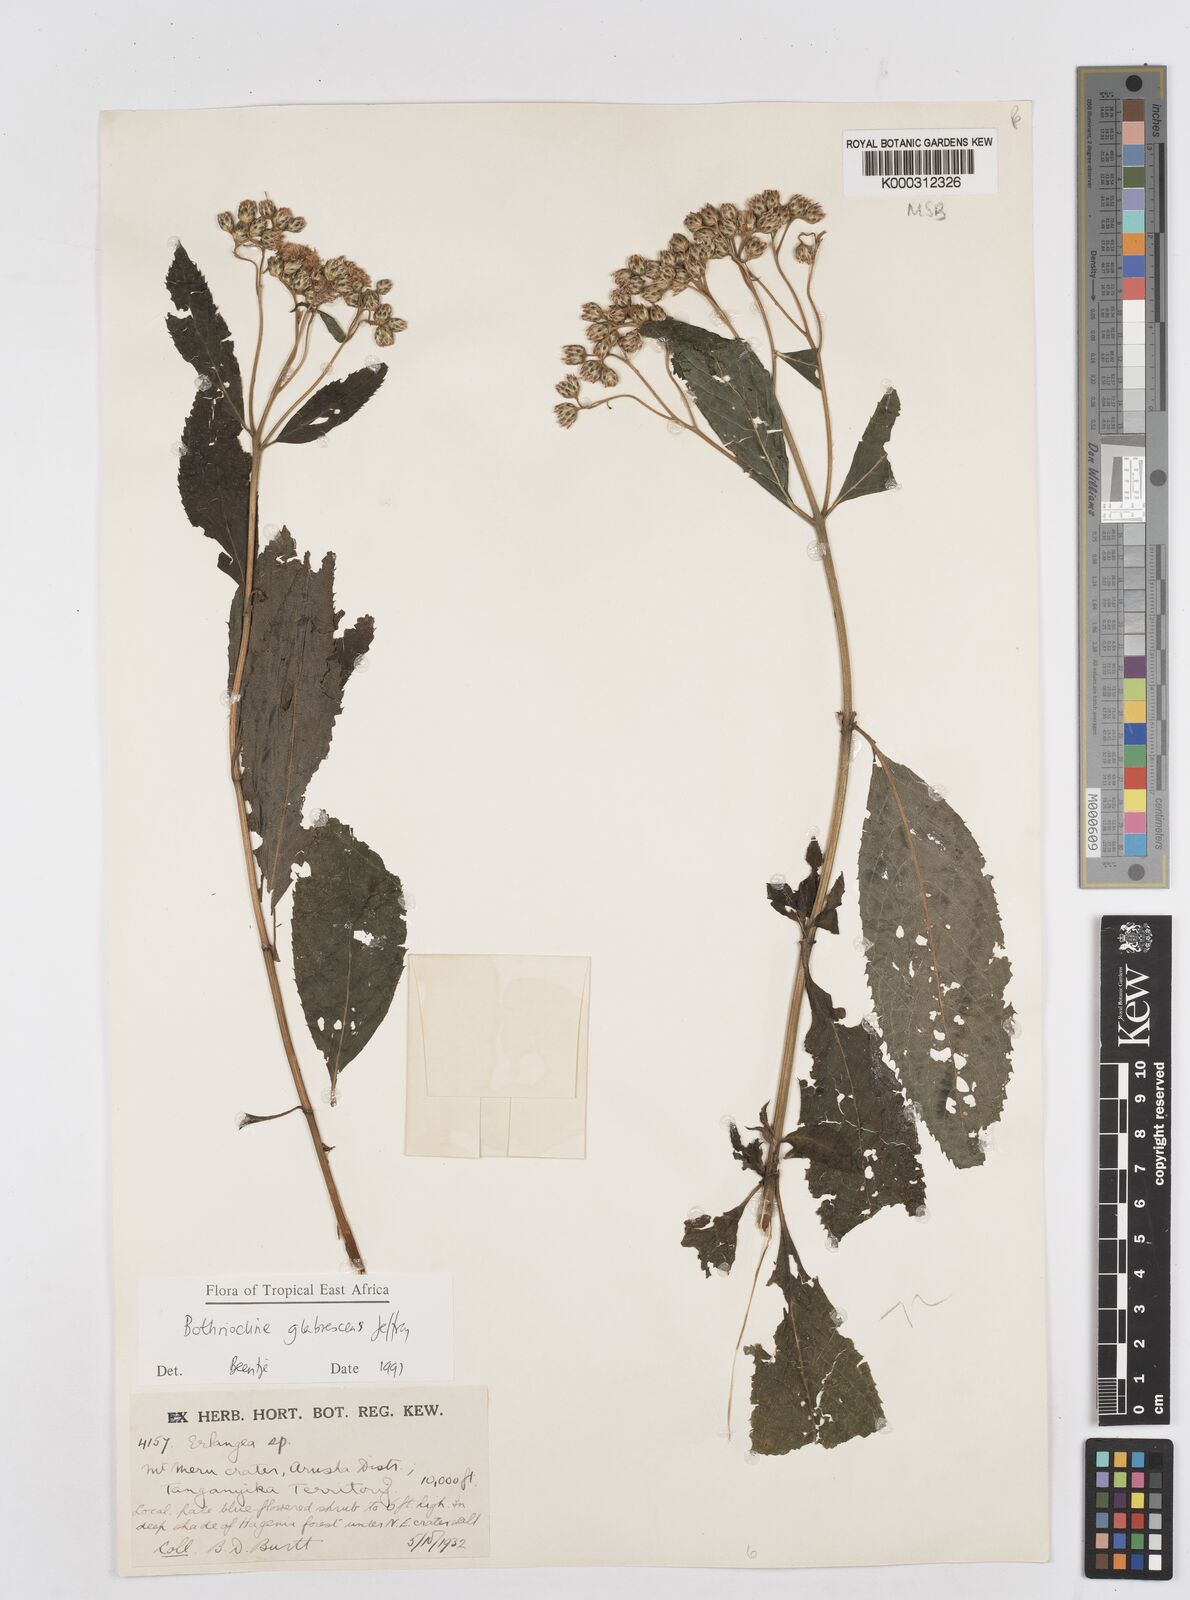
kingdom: Plantae
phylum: Tracheophyta
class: Magnoliopsida
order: Asterales
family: Asteraceae
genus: Bothriocline
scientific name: Bothriocline glabrescens
